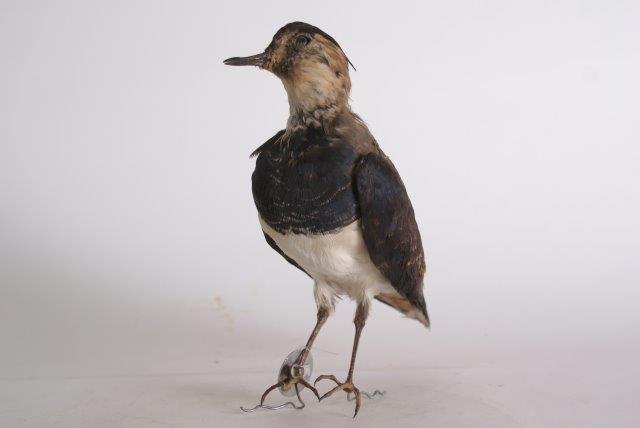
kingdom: Animalia
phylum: Chordata
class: Aves
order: Charadriiformes
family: Charadriidae
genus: Vanellus
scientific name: Vanellus vanellus
